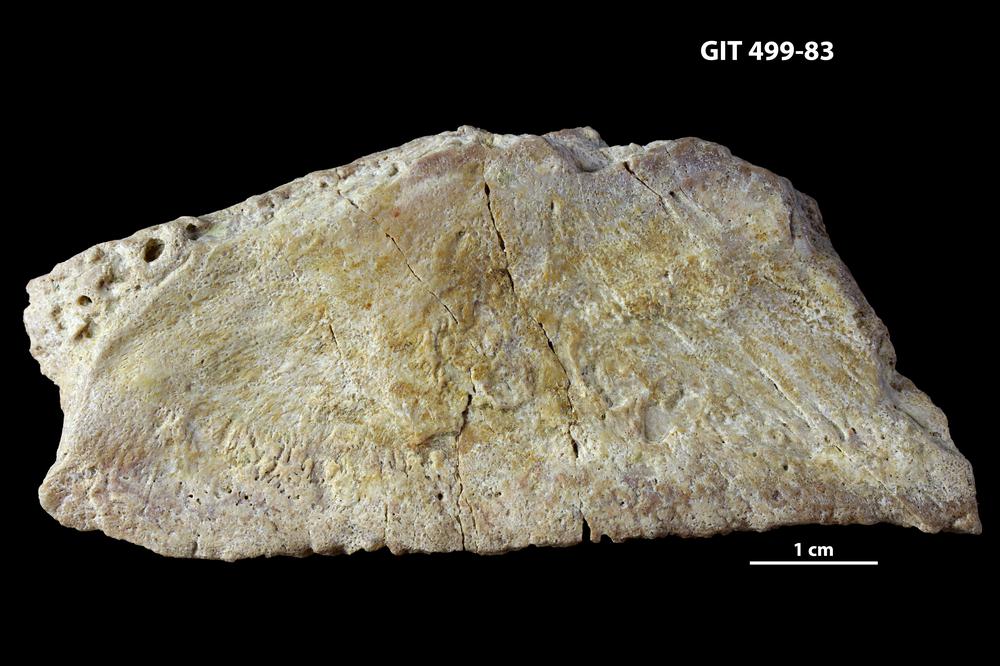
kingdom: Animalia
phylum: Chordata
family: Holoptychiidae
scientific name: Holoptychiidae
